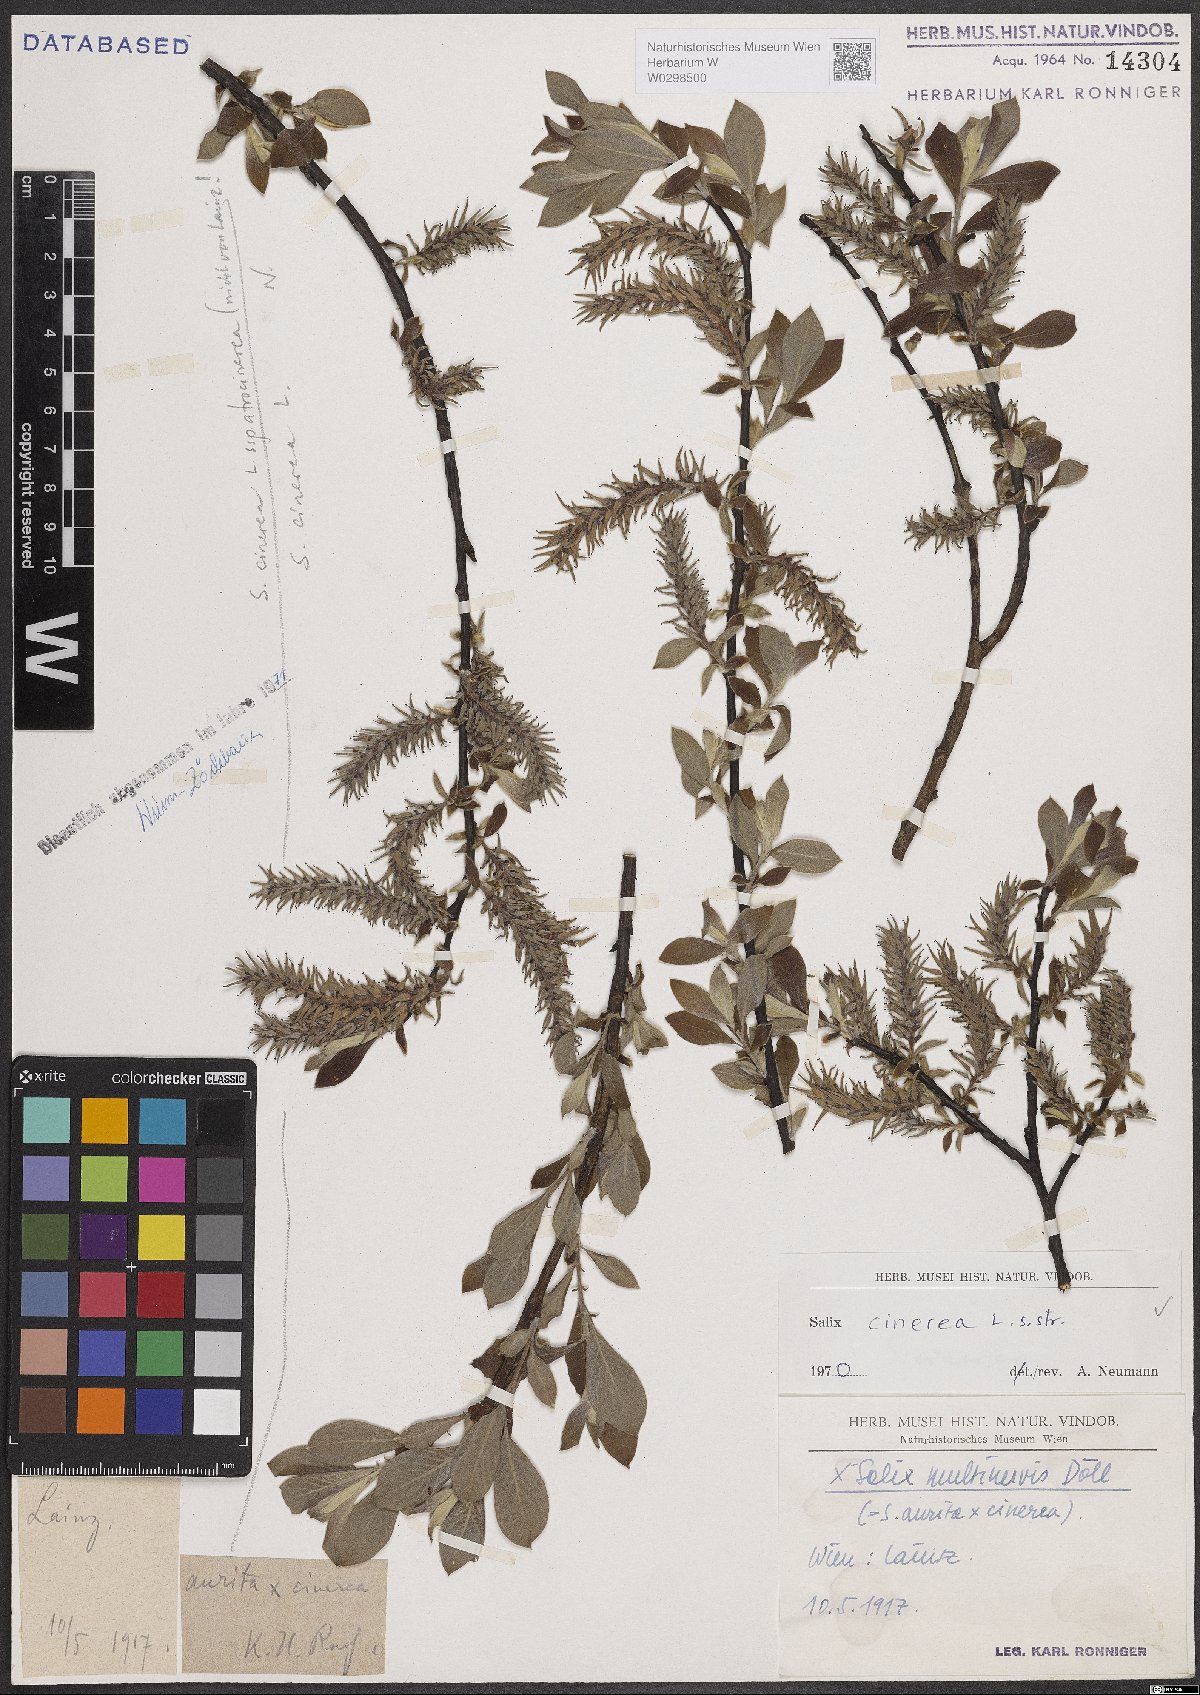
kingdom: Plantae
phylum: Tracheophyta
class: Magnoliopsida
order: Malpighiales
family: Salicaceae
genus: Salix
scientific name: Salix cinerea
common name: Common sallow
